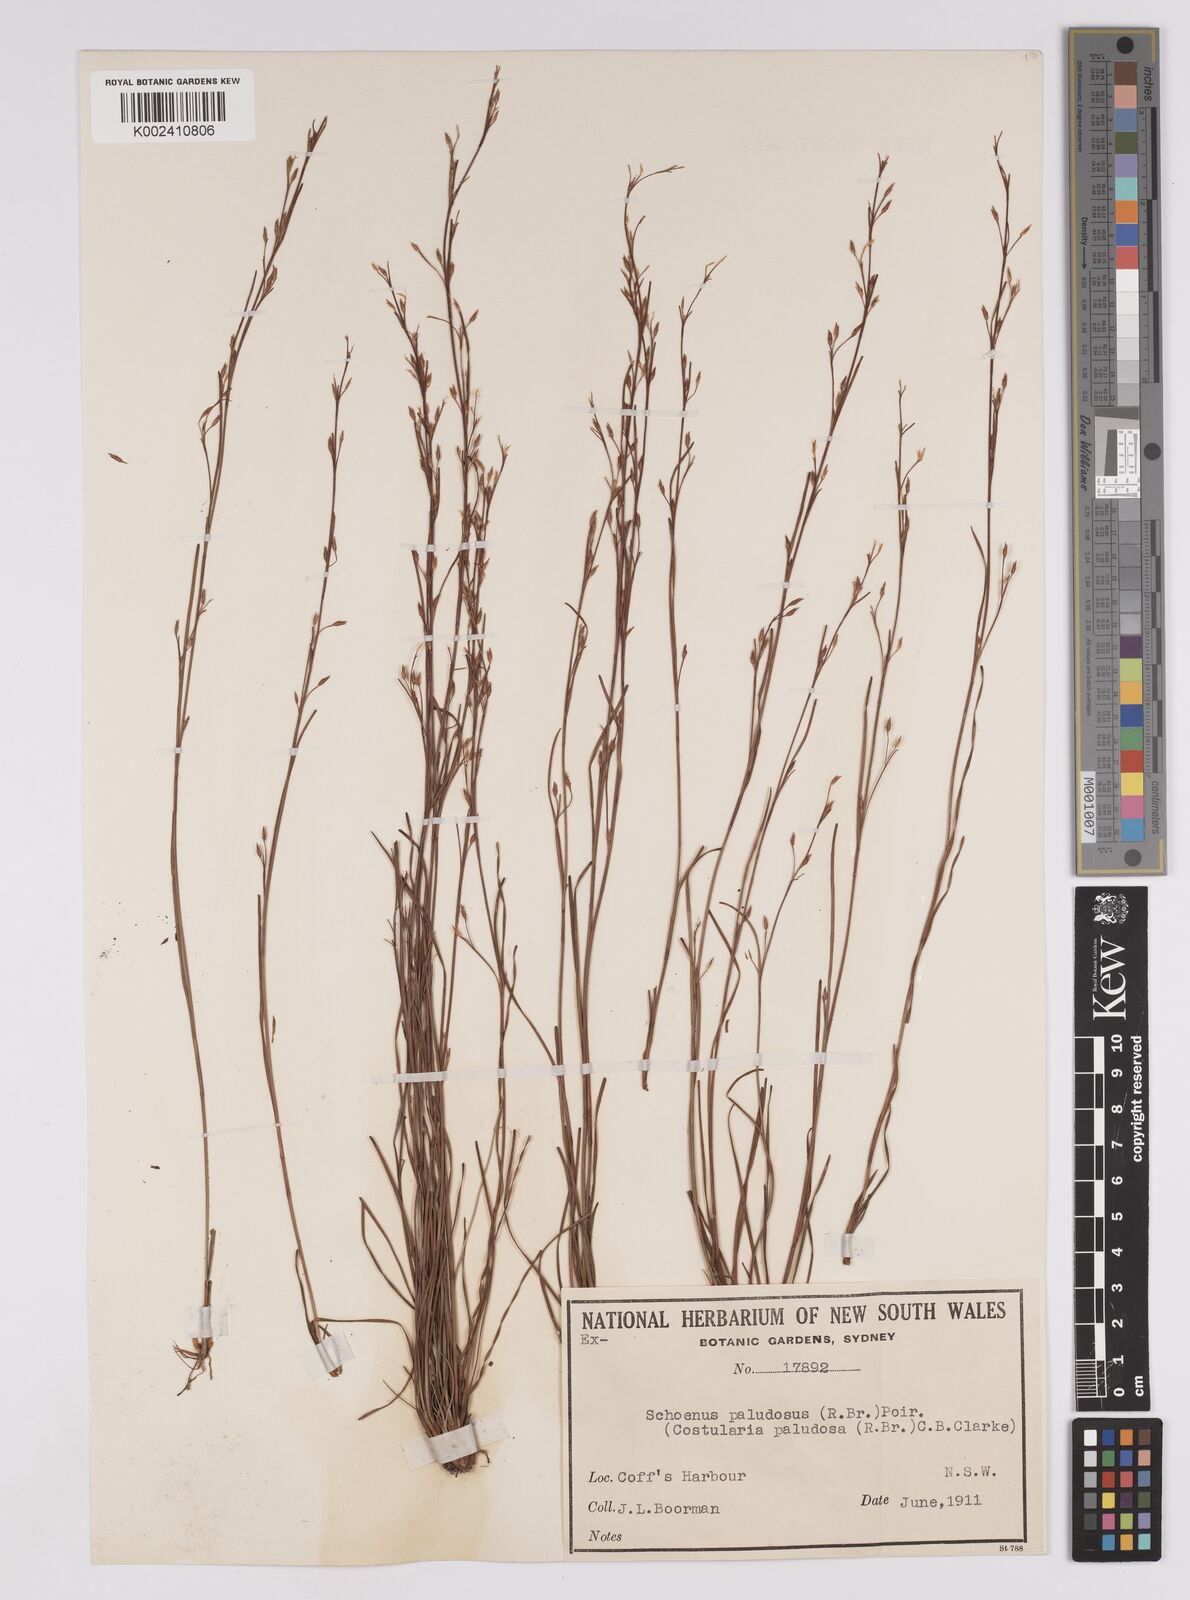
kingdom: Plantae
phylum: Tracheophyta
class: Liliopsida
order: Poales
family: Cyperaceae
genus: Anthelepis
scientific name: Anthelepis paludosa
